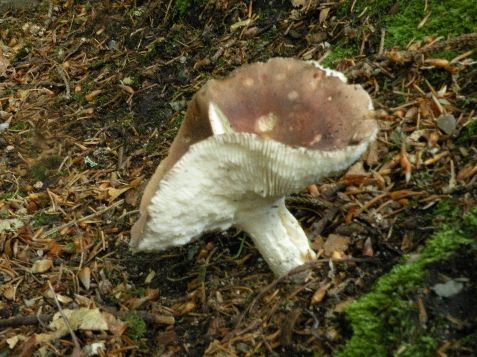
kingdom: Fungi
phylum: Basidiomycota
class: Agaricomycetes
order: Russulales
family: Russulaceae
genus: Russula
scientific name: Russula vesca
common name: spiselig skørhat
